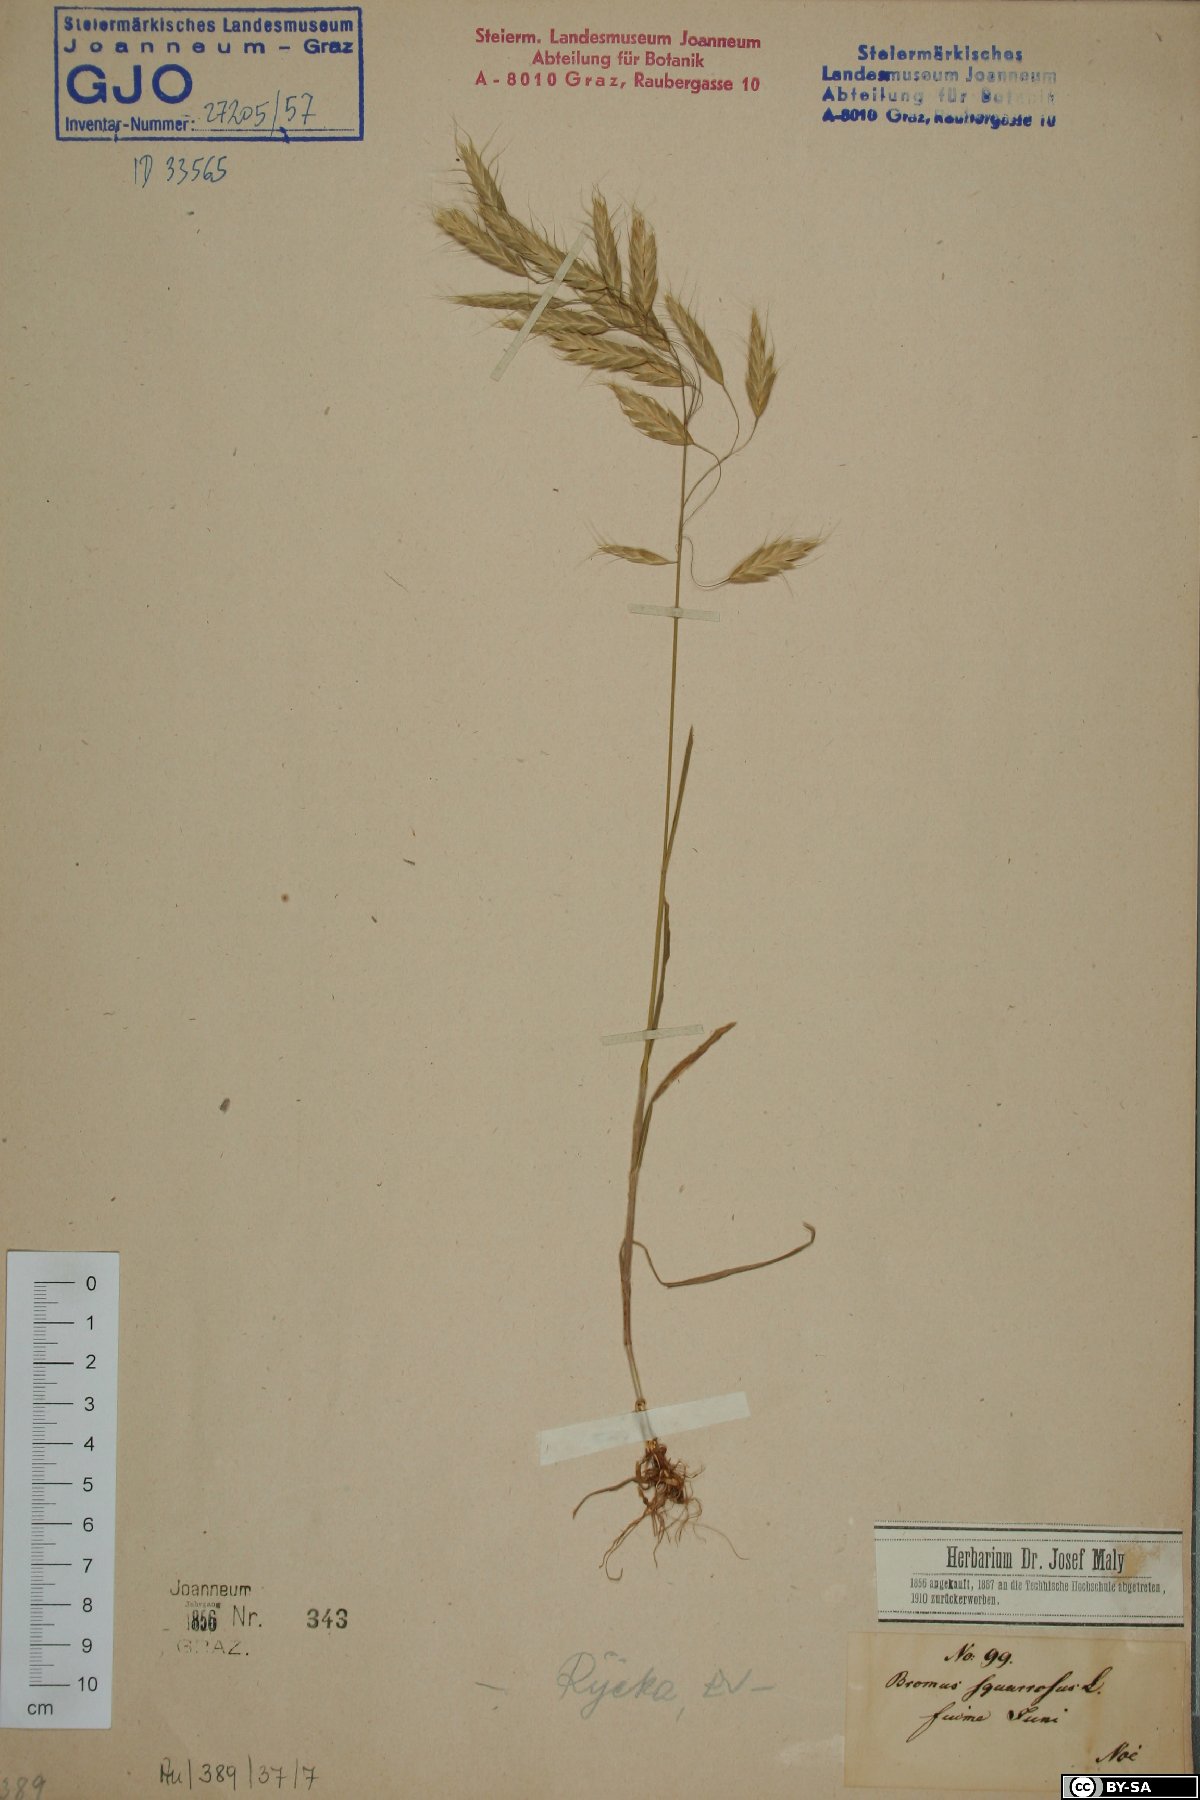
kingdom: Plantae
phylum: Tracheophyta
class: Liliopsida
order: Poales
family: Poaceae
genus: Bromus
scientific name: Bromus squarrosus
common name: Corn brome
